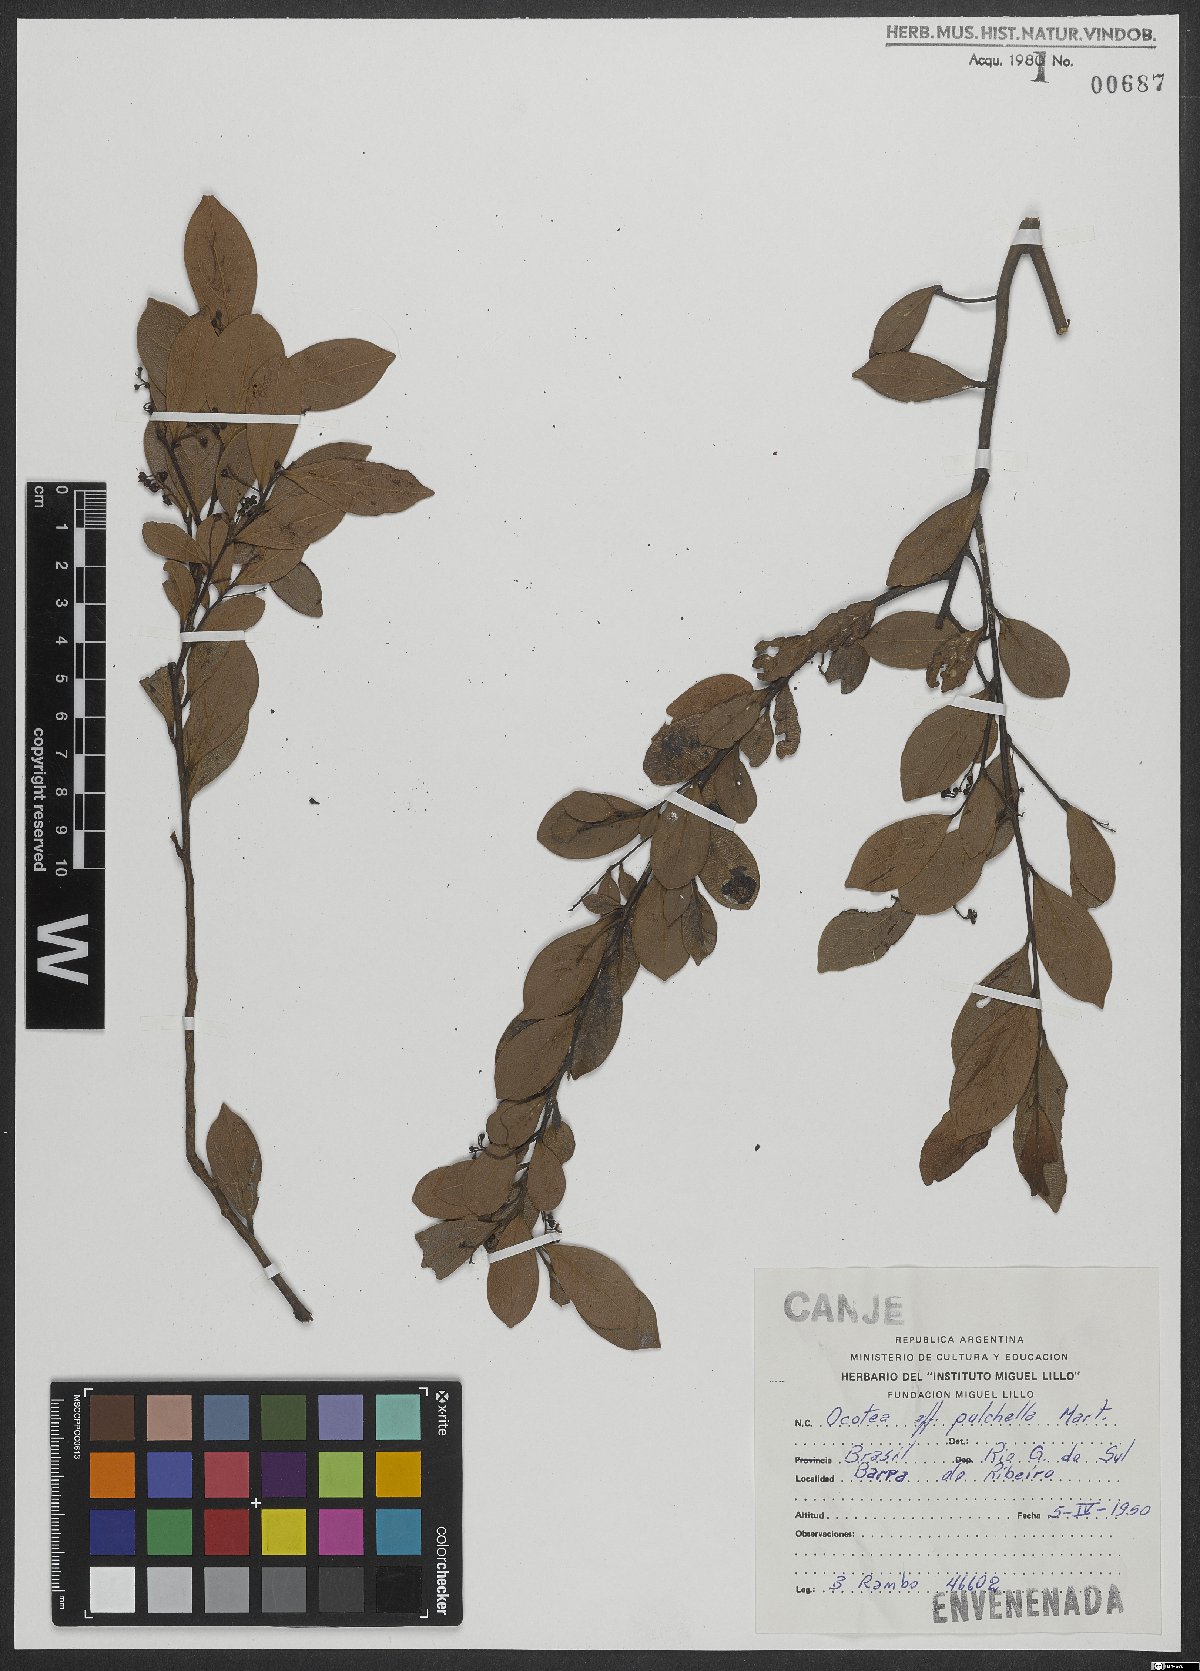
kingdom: Plantae
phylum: Tracheophyta
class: Magnoliopsida
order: Laurales
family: Lauraceae
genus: Mespilodaphne
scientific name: Mespilodaphne pulchella
